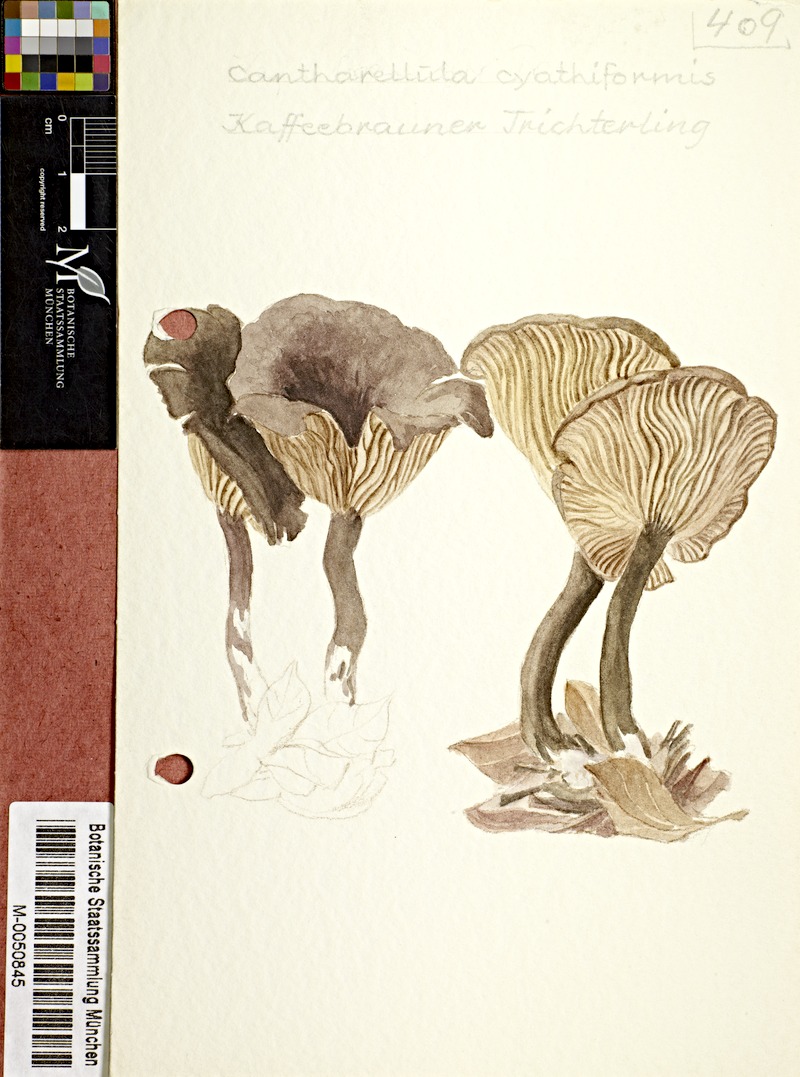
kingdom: Fungi
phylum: Basidiomycota
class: Agaricomycetes
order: Agaricales
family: Pseudoclitocybaceae
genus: Pseudoclitocybe
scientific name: Pseudoclitocybe cyathiformis
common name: Goblet
